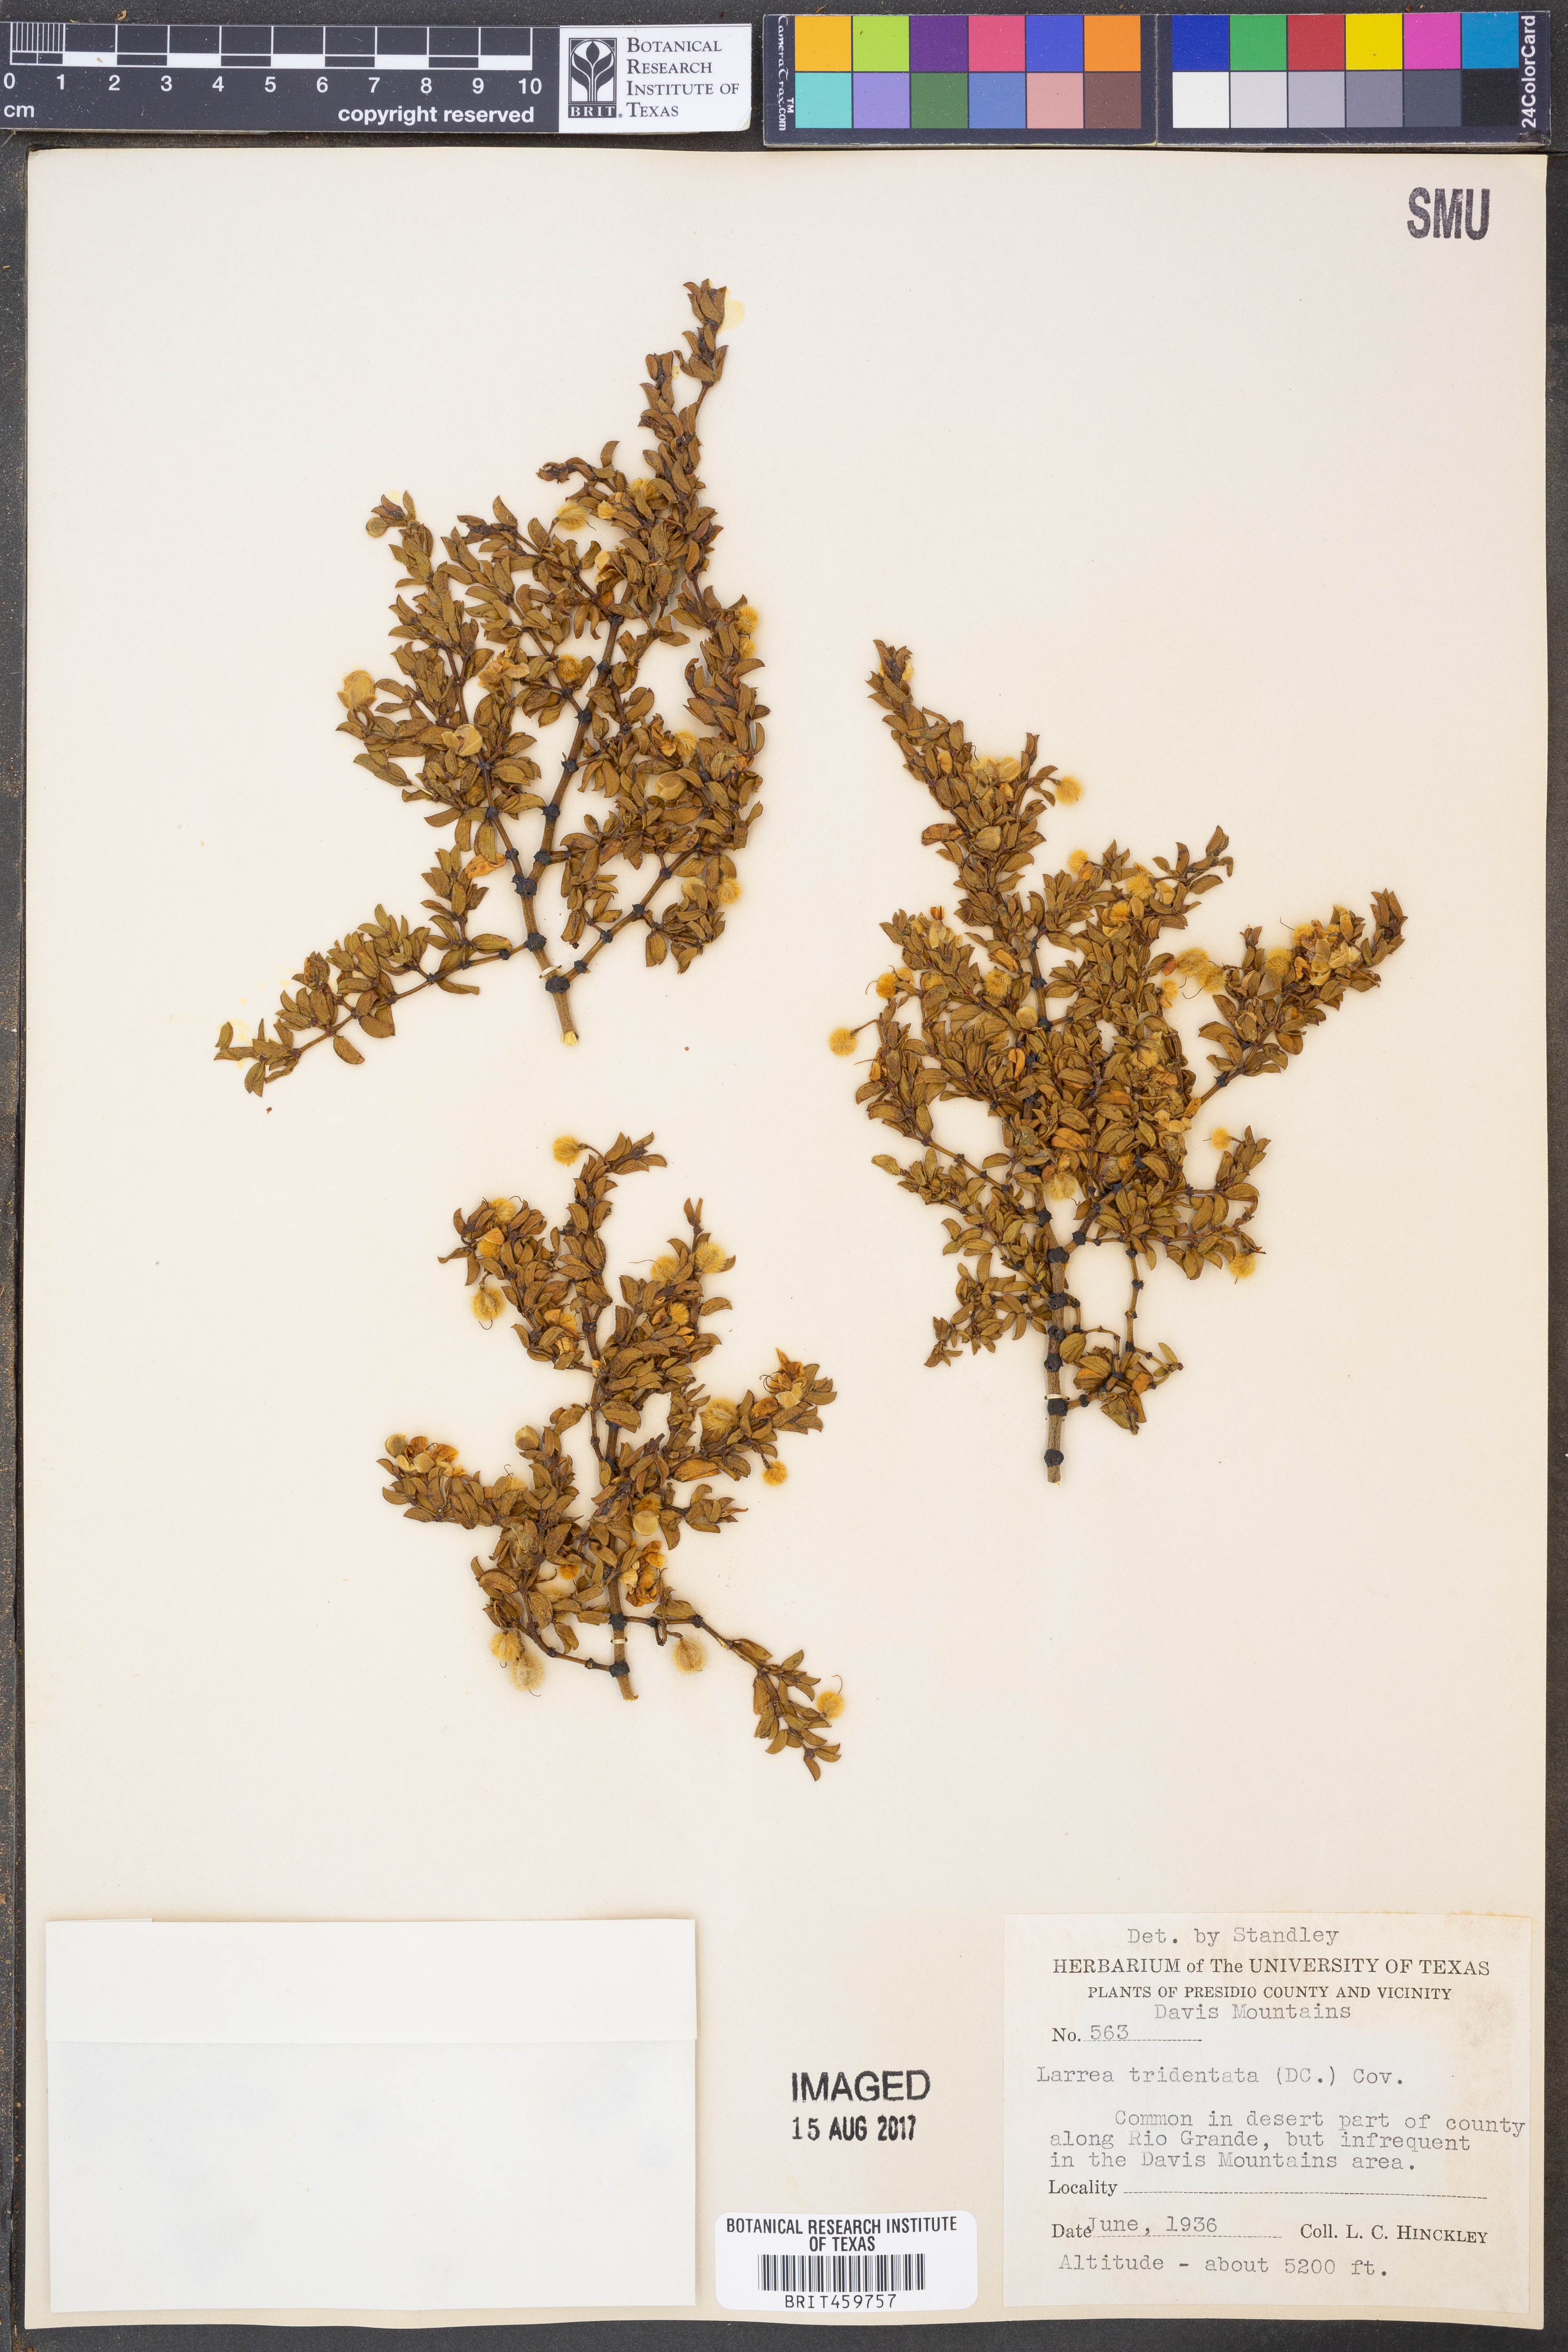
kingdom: Plantae
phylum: Tracheophyta
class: Magnoliopsida
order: Zygophyllales
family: Zygophyllaceae
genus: Larrea
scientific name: Larrea tridentata
